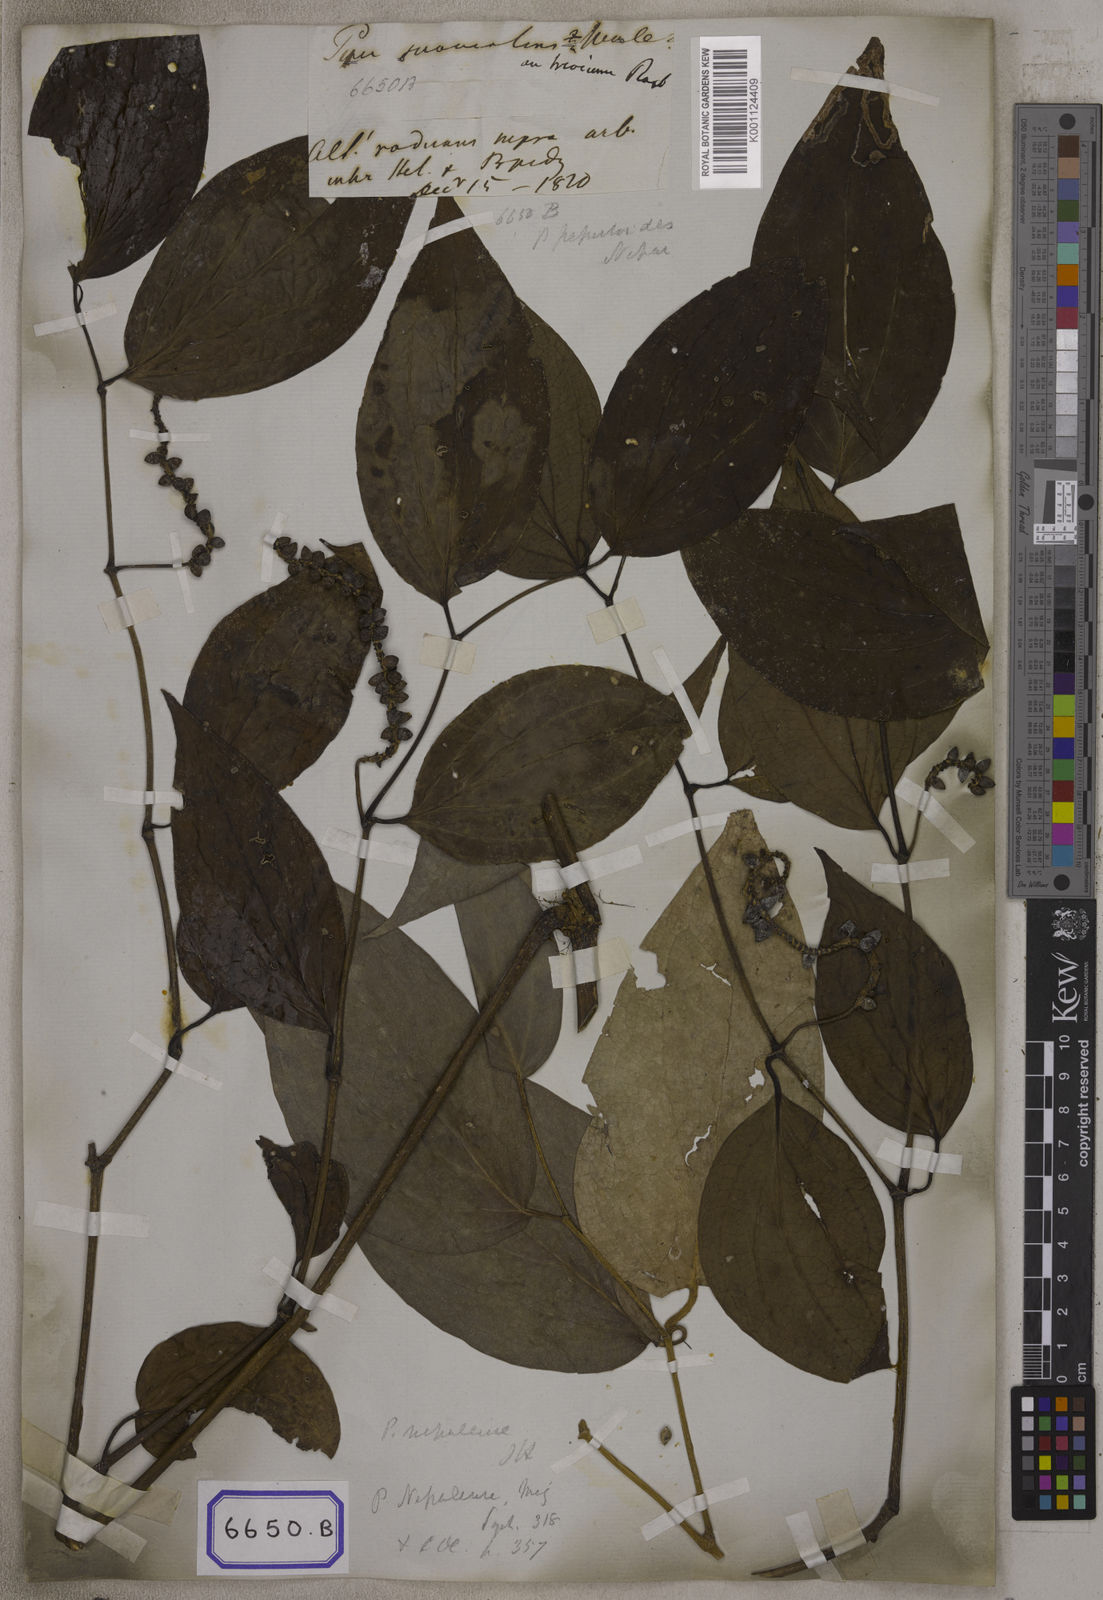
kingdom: Plantae
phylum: Tracheophyta
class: Magnoliopsida
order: Piperales
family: Piperaceae
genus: Piper
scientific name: Piper
